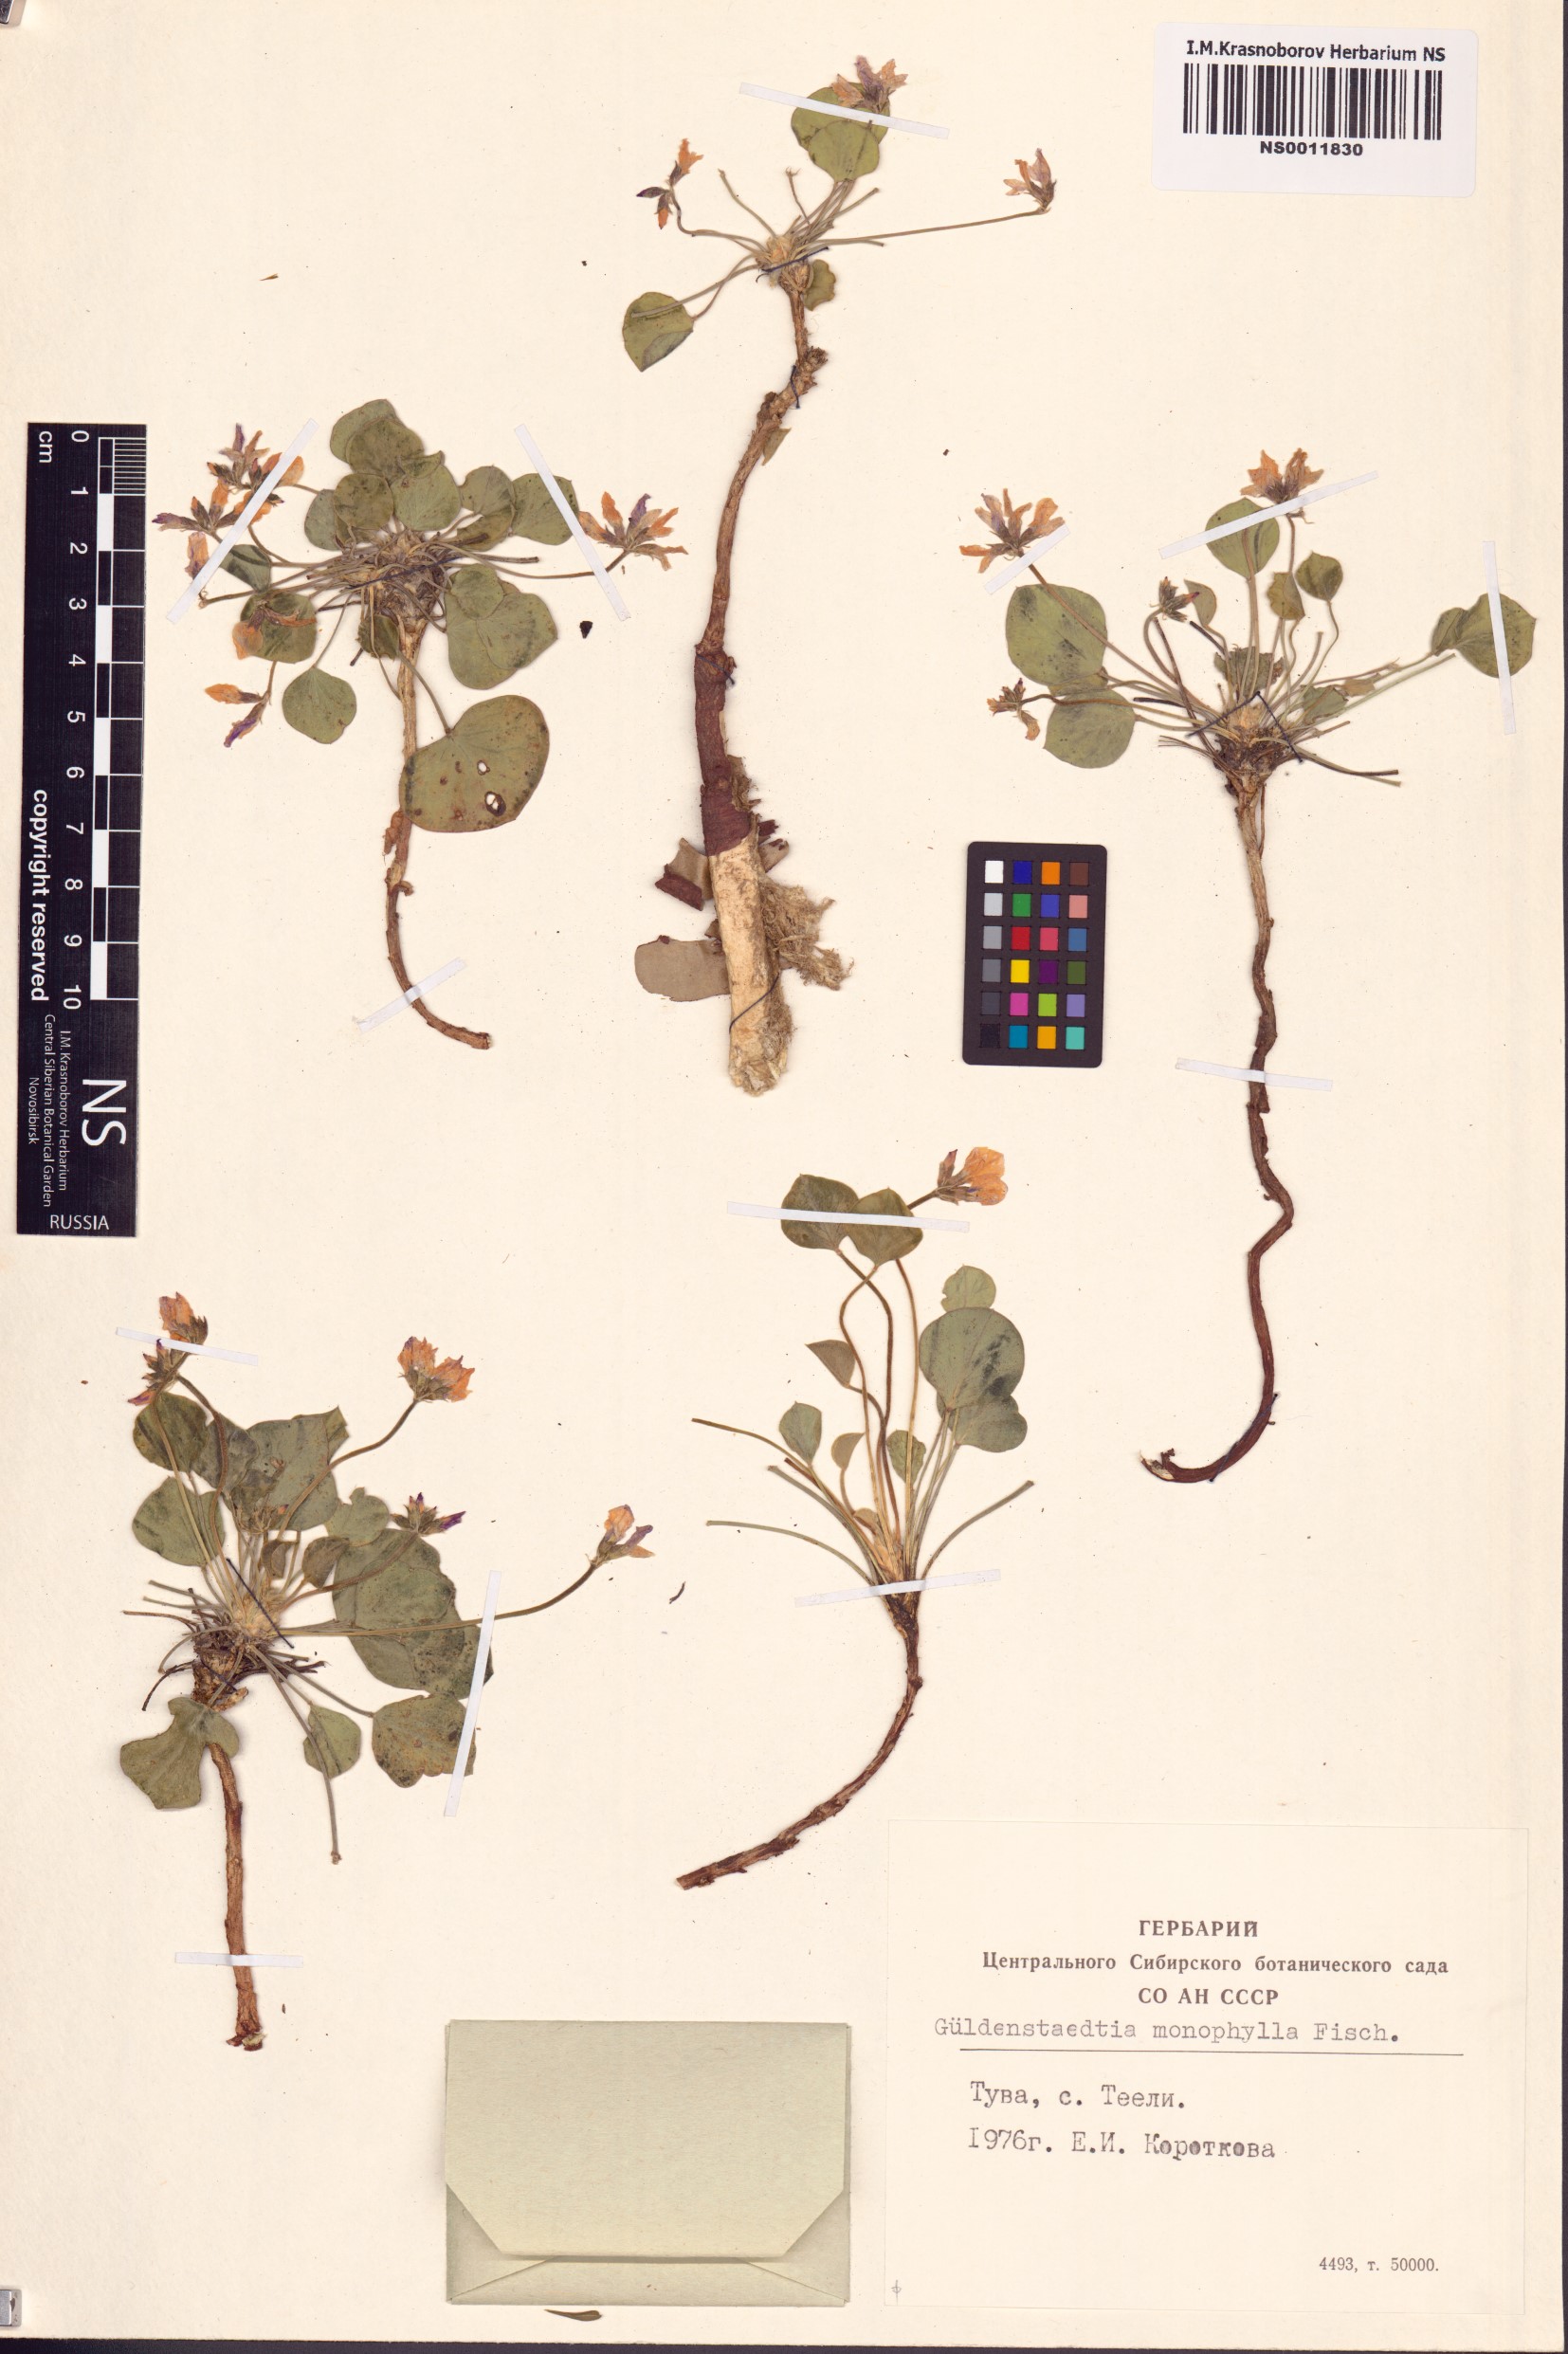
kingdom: Plantae
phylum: Tracheophyta
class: Magnoliopsida
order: Fabales
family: Fabaceae
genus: Gueldenstaedtia
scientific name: Gueldenstaedtia monophylla
